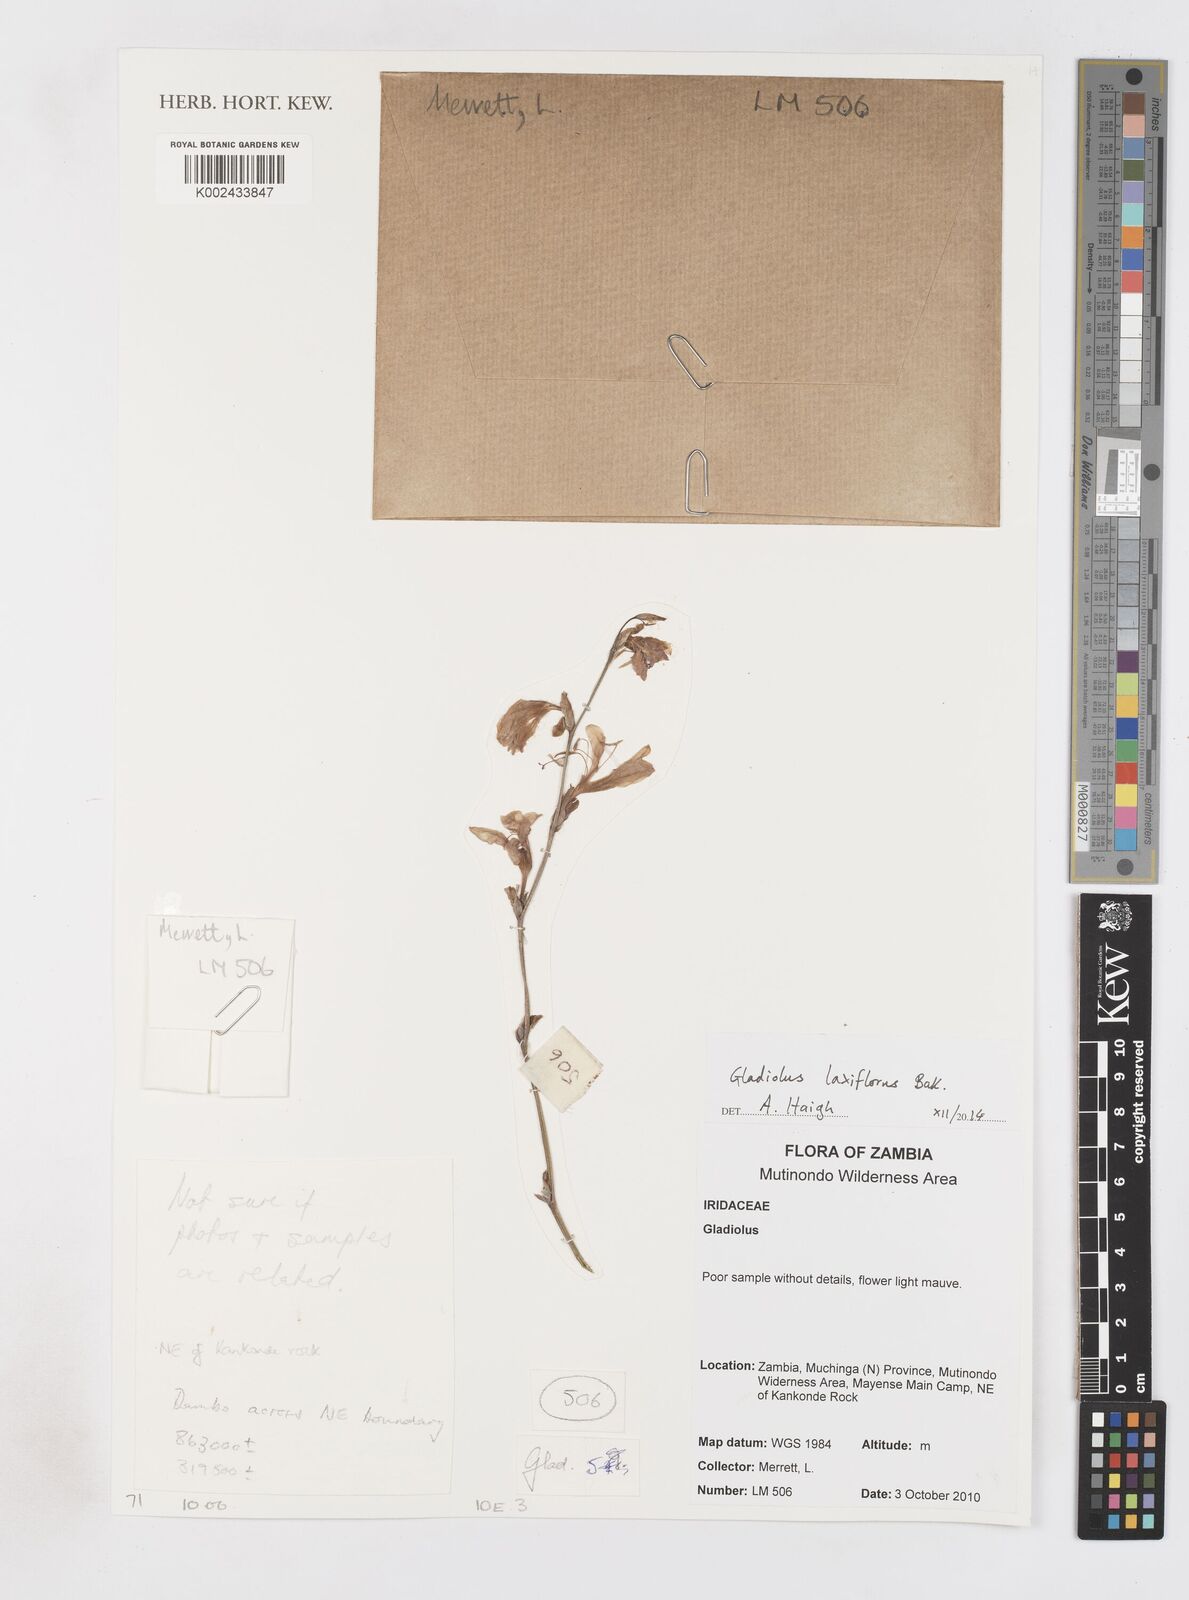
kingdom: Plantae
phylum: Tracheophyta
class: Liliopsida
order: Asparagales
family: Iridaceae
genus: Gladiolus
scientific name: Gladiolus laxiflorus
